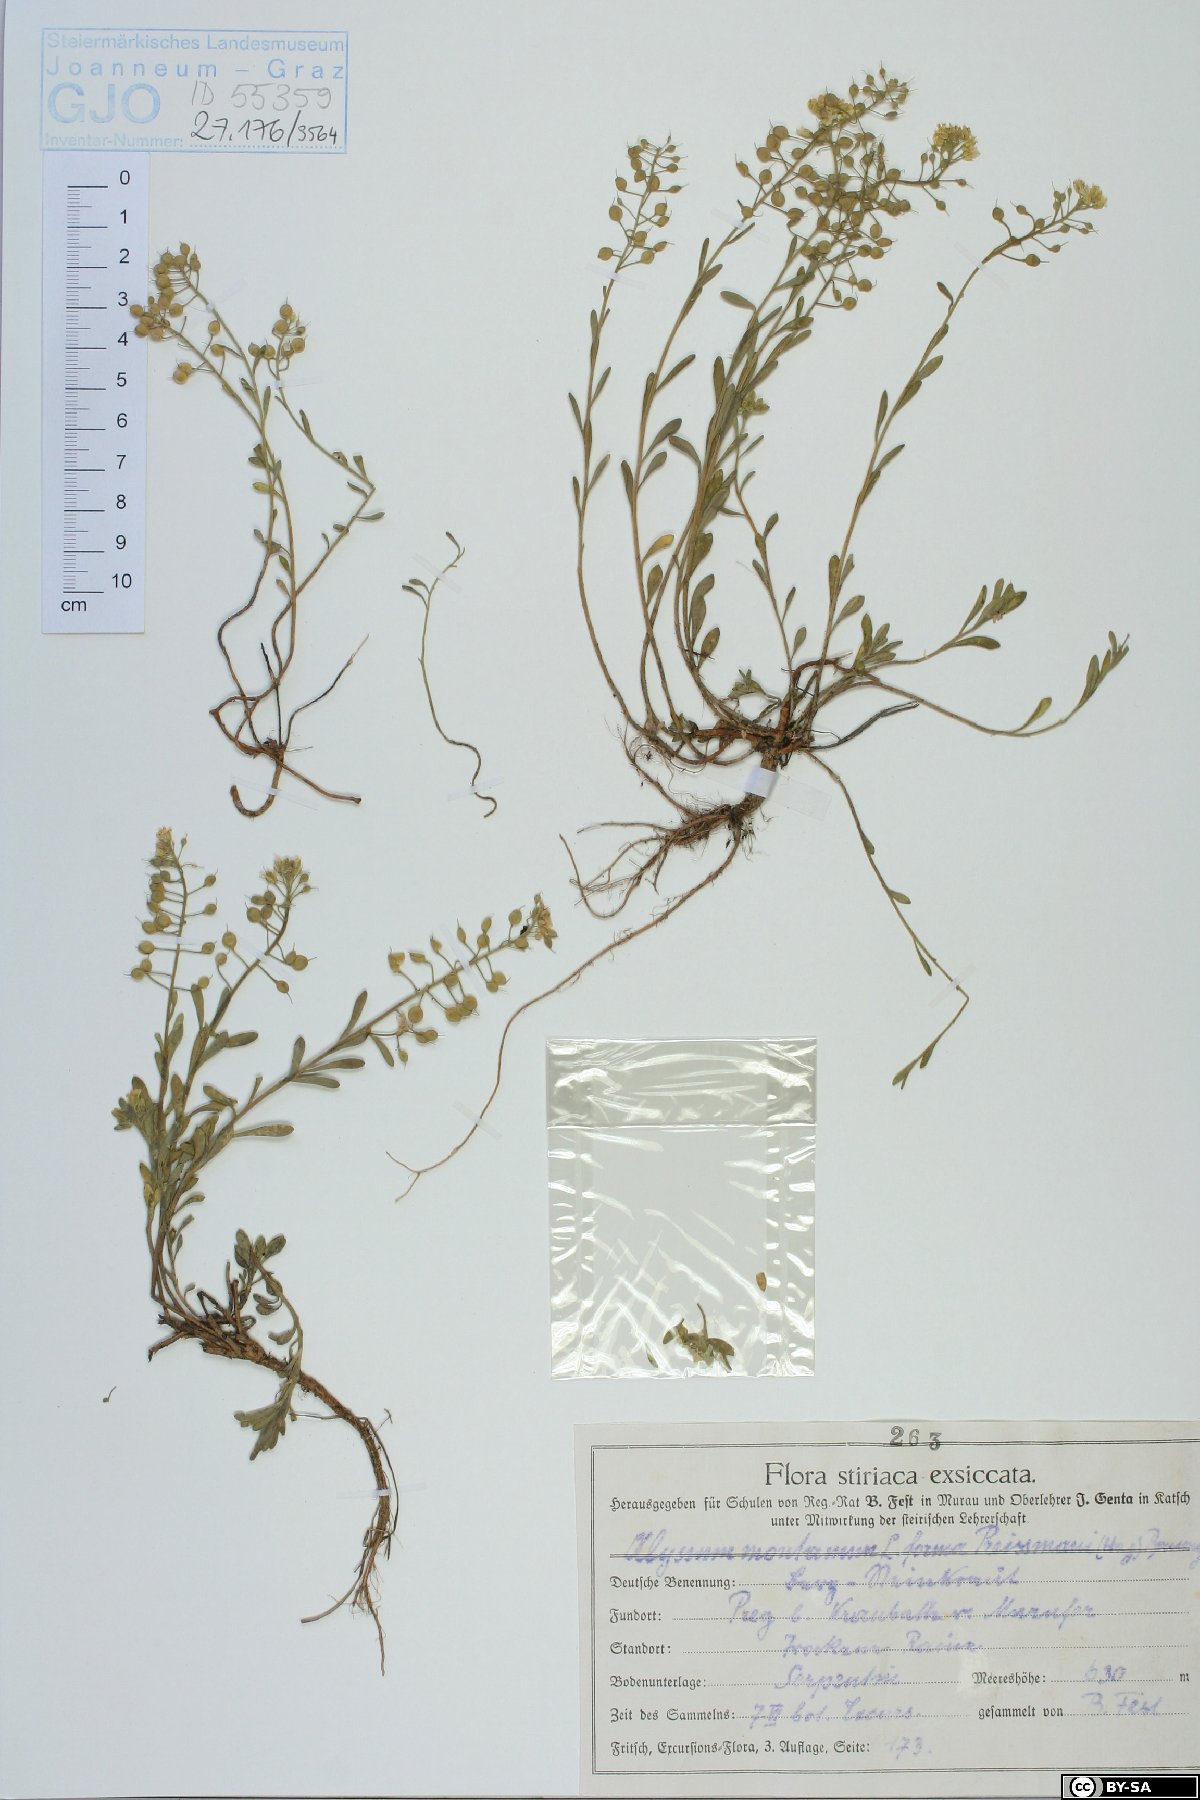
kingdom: Plantae
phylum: Tracheophyta
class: Magnoliopsida
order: Brassicales
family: Brassicaceae
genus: Alyssum
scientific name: Alyssum gmelinii
